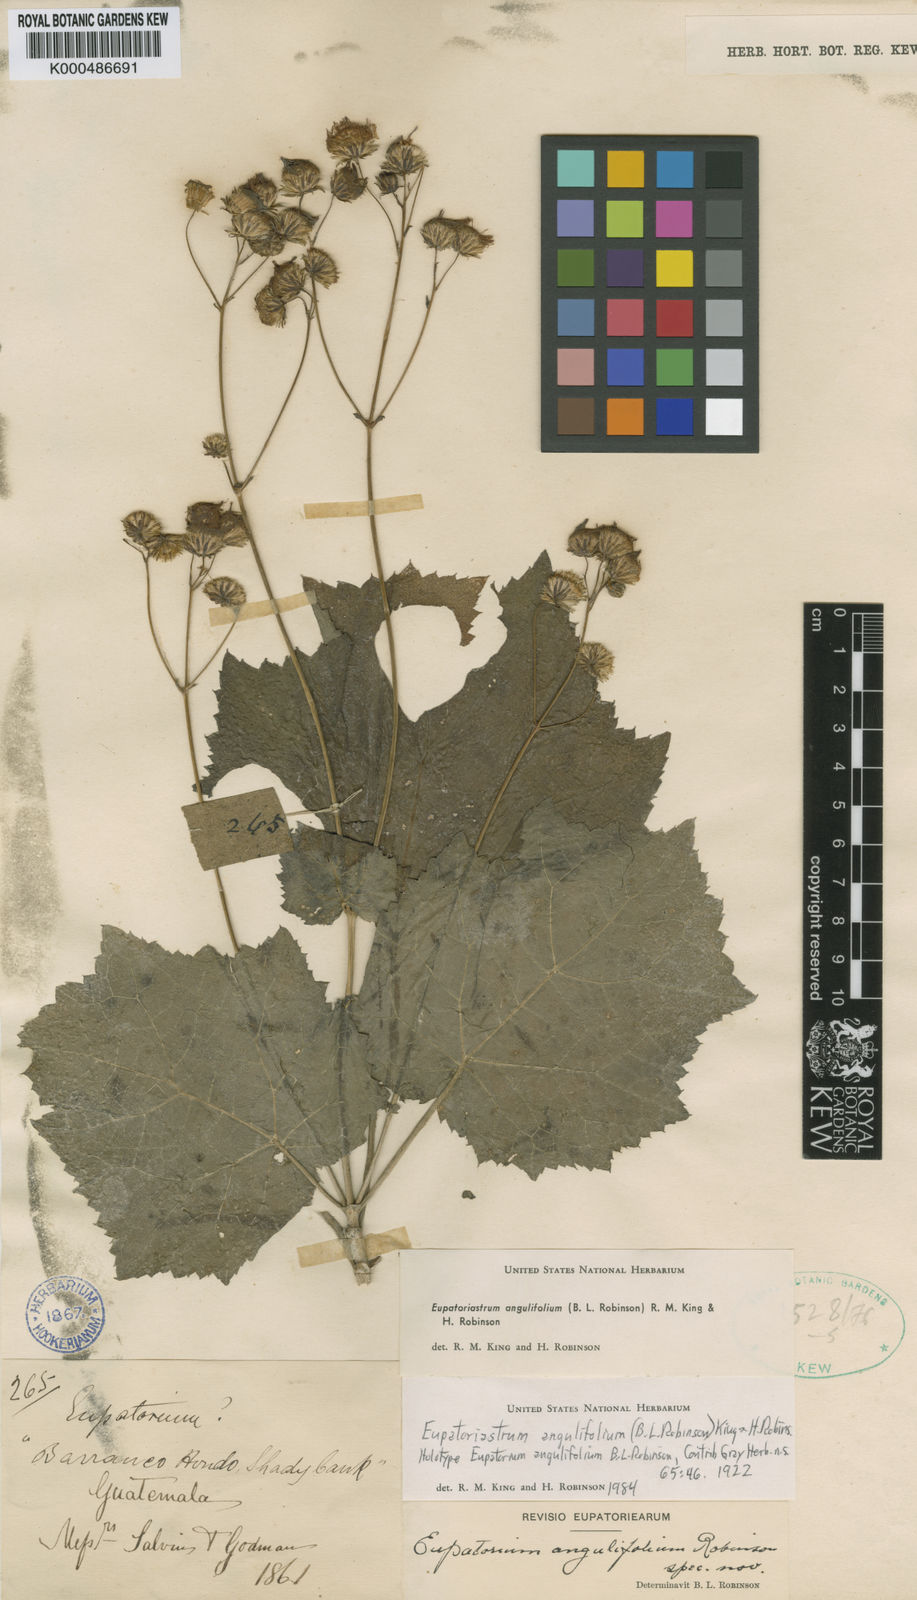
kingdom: Plantae
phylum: Tracheophyta
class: Magnoliopsida
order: Asterales
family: Asteraceae
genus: Eupatoriastrum
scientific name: Eupatoriastrum angulifolium
